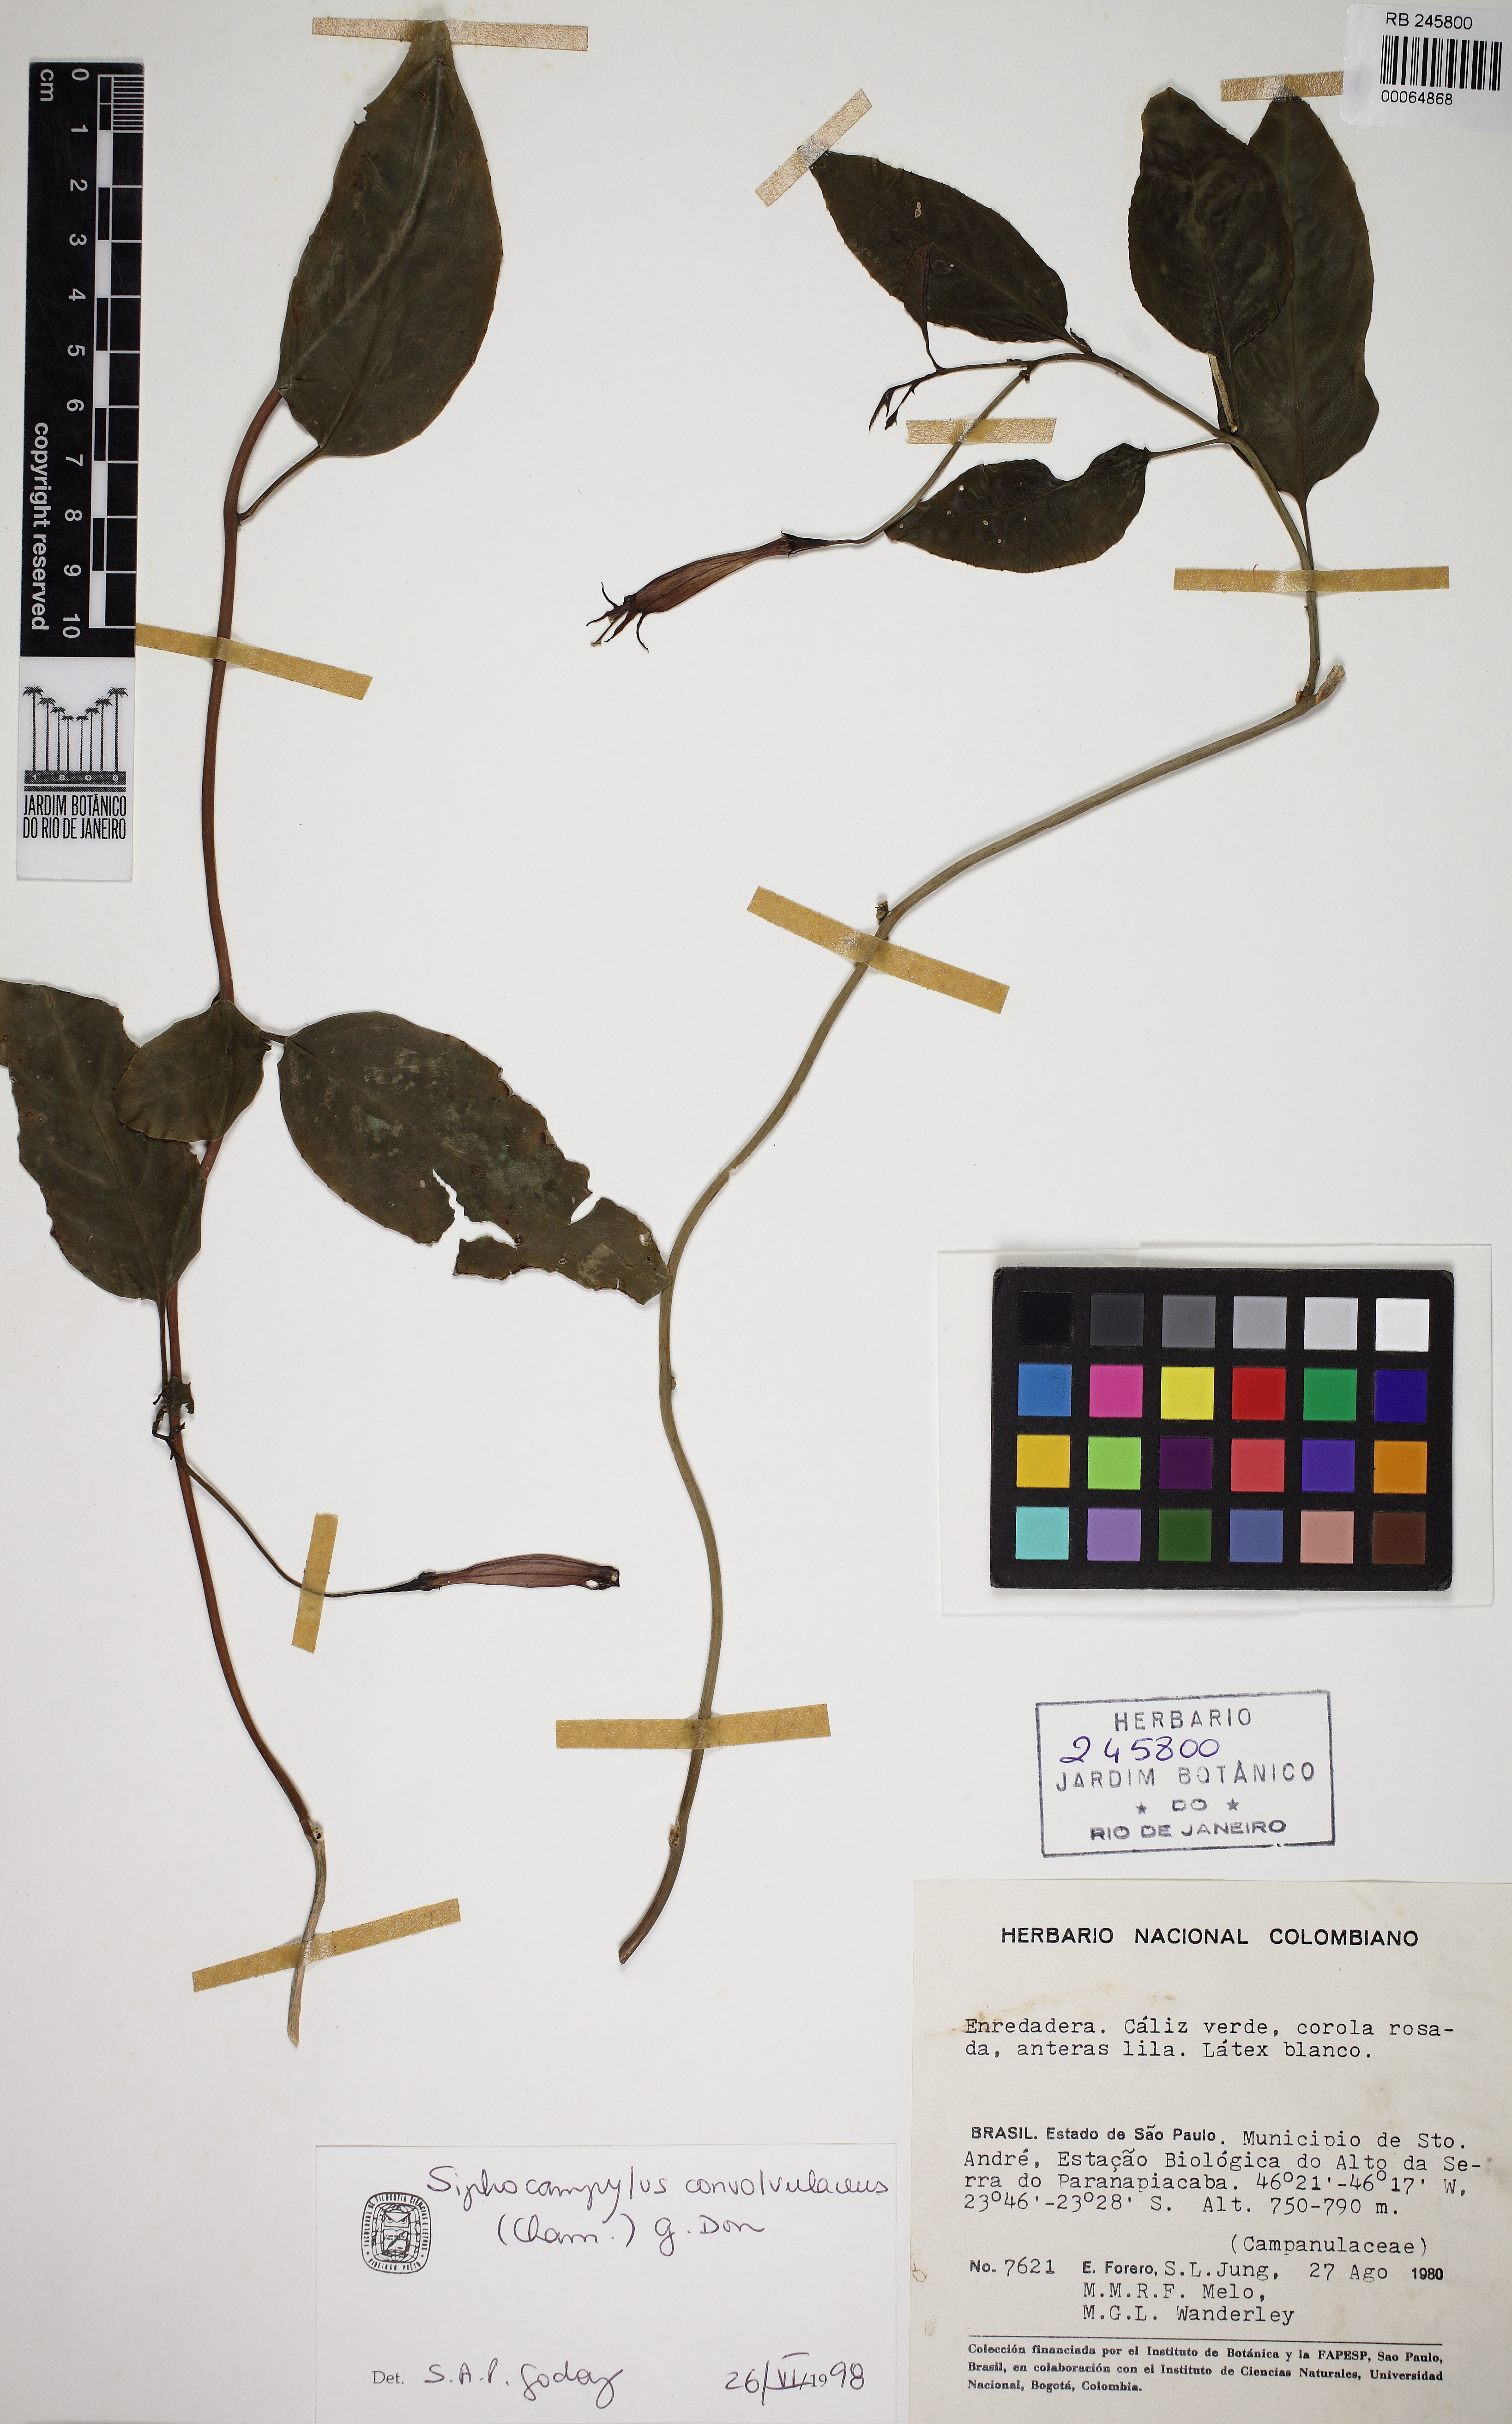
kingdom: Plantae
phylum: Tracheophyta
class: Magnoliopsida
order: Asterales
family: Campanulaceae
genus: Siphocampylus
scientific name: Siphocampylus convolvulaceus
